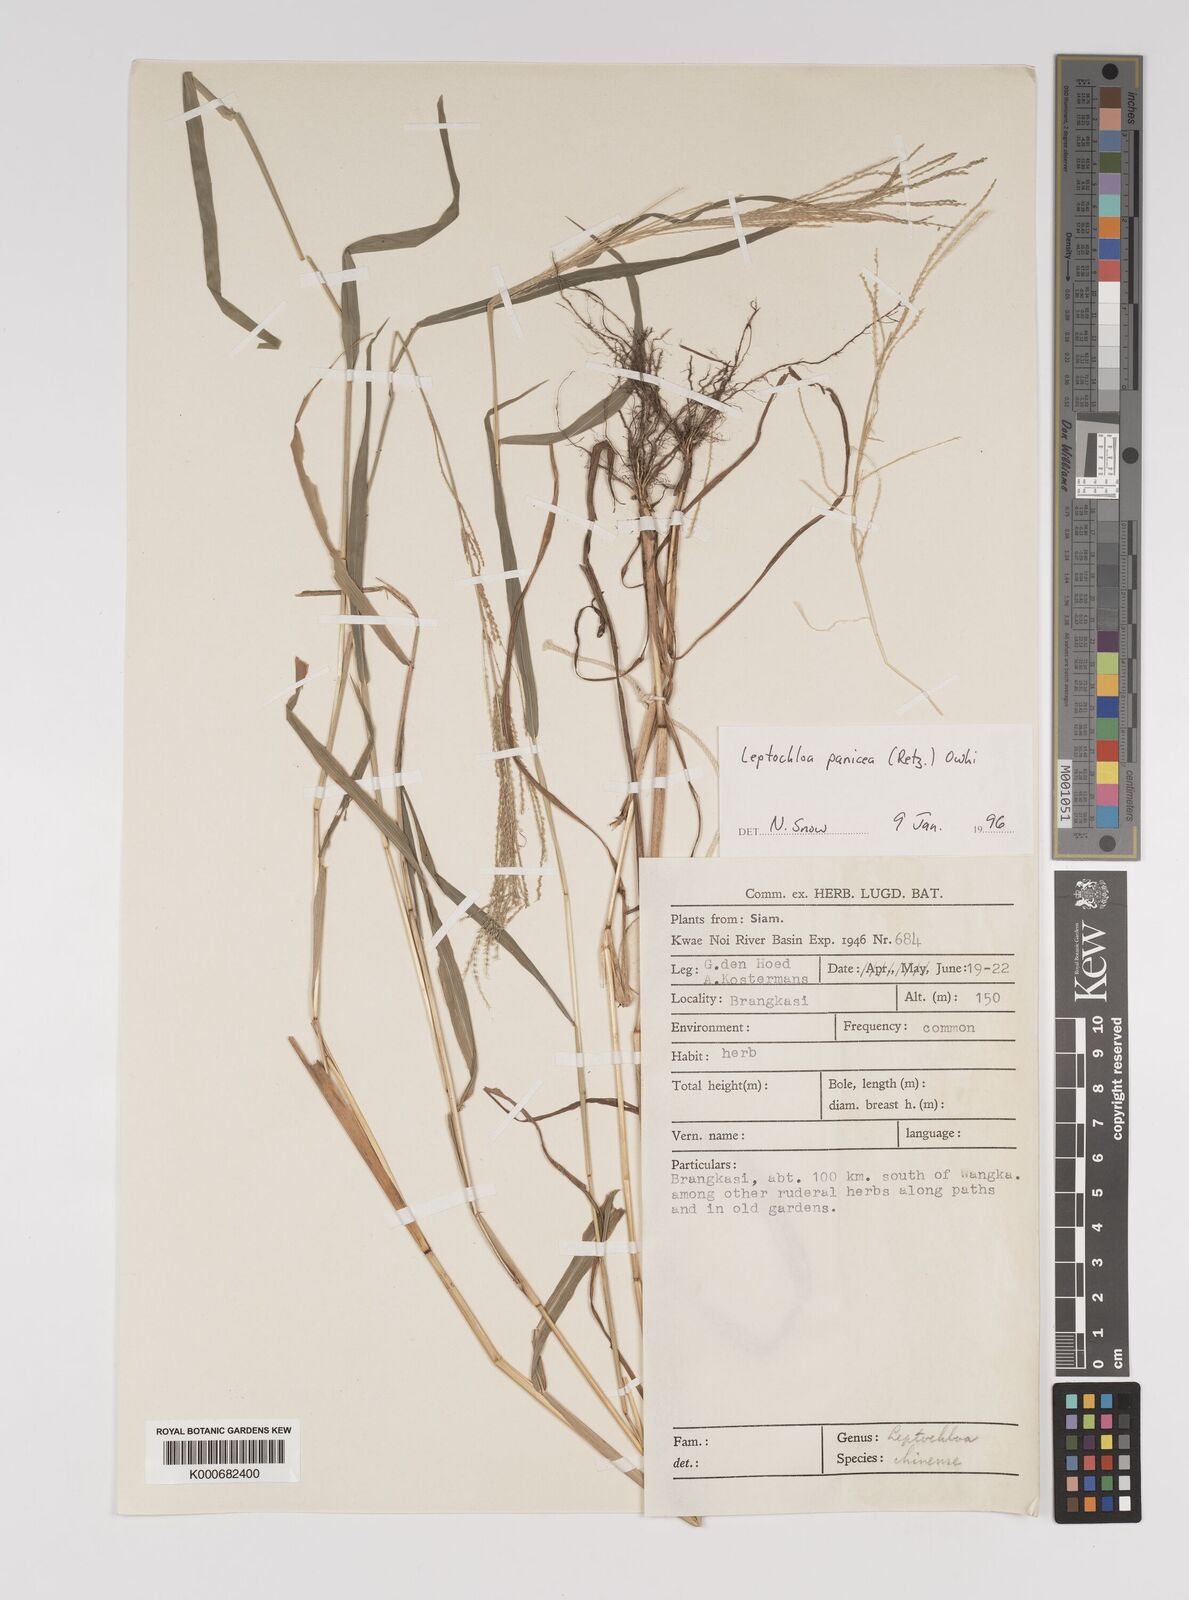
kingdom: Plantae
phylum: Tracheophyta
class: Liliopsida
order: Poales
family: Poaceae
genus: Leptochloa
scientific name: Leptochloa panicea
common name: Mucronate sprangletop
